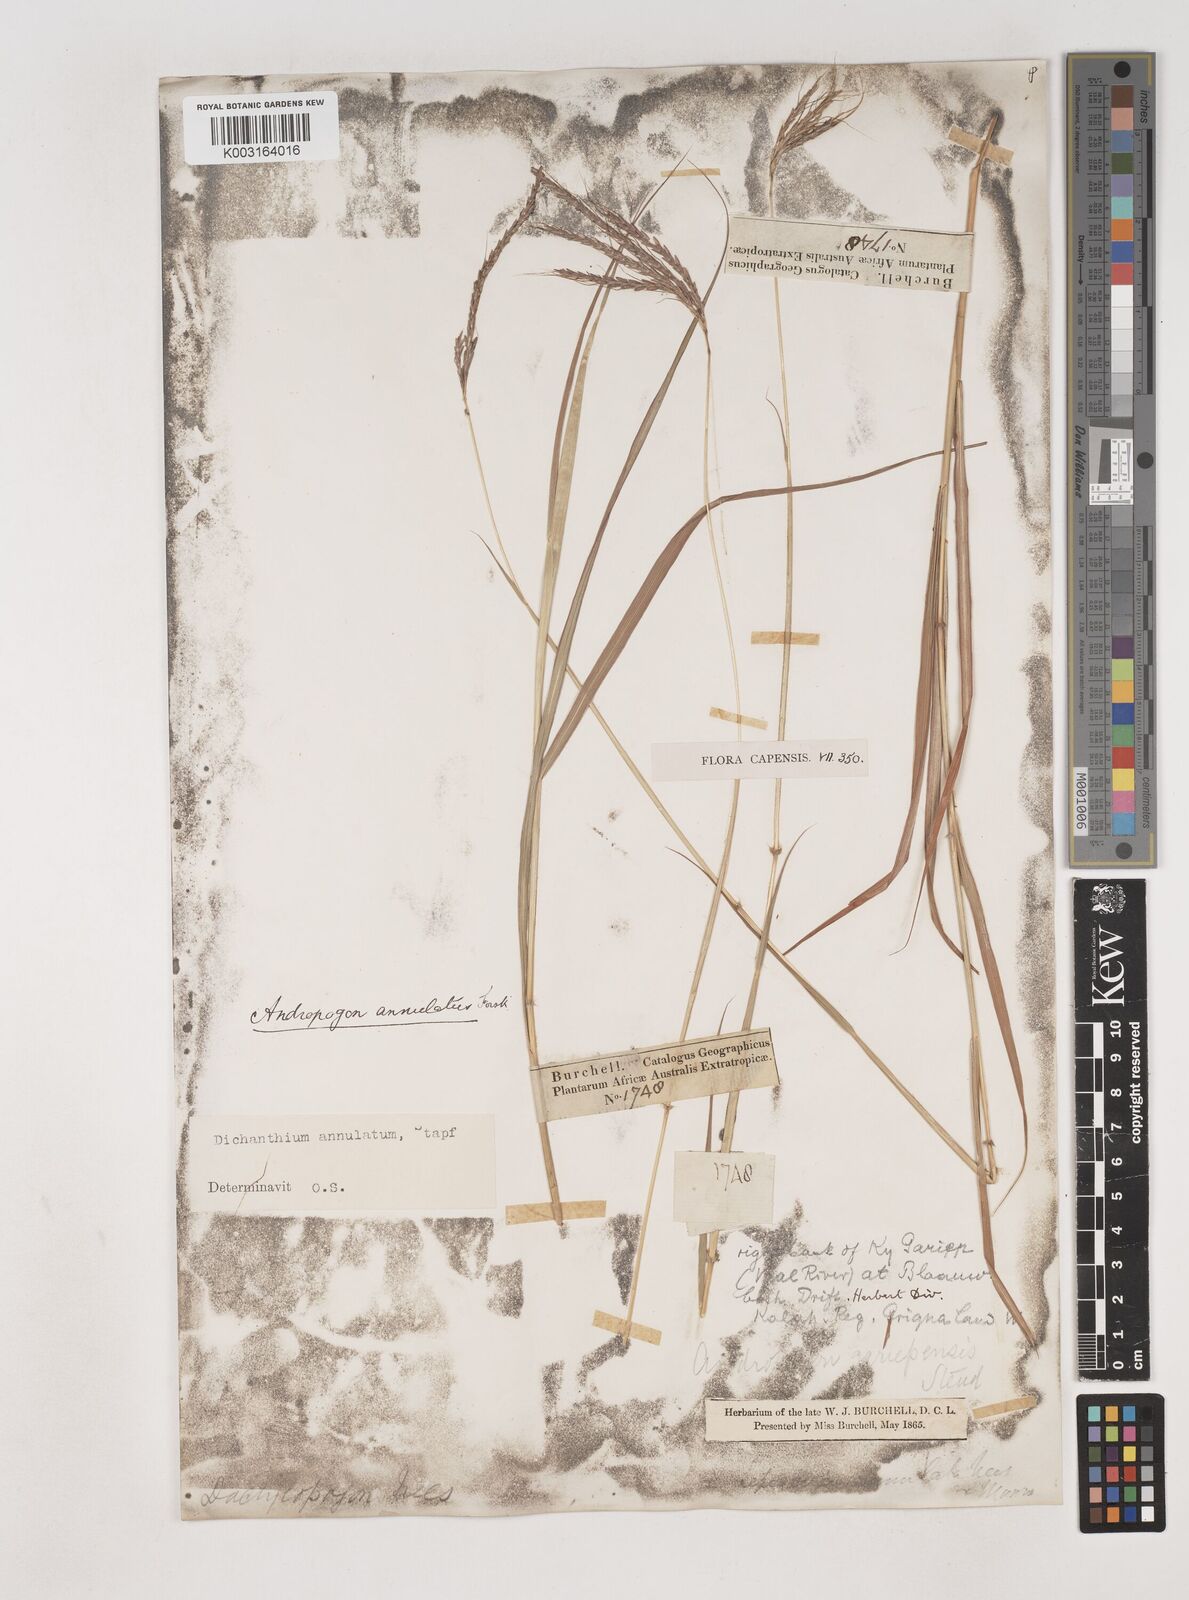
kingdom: Plantae
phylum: Tracheophyta
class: Liliopsida
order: Poales
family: Poaceae
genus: Dichanthium
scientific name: Dichanthium annulatum
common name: Kleberg's bluestem
